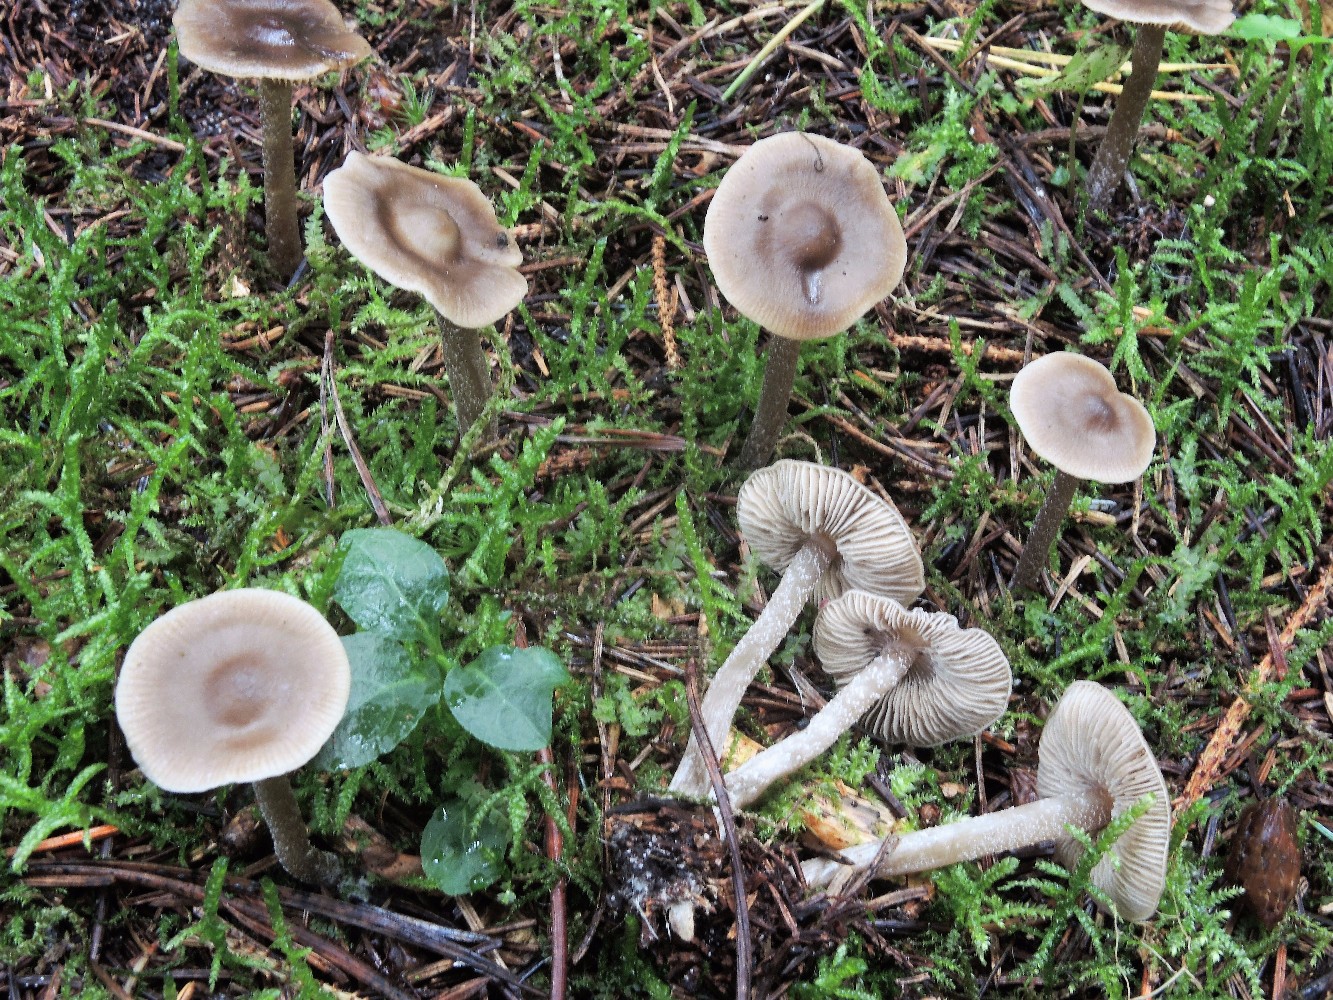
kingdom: Fungi
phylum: Basidiomycota
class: Agaricomycetes
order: Agaricales
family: Lyophyllaceae
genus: Myochromella
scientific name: Myochromella boudieri
